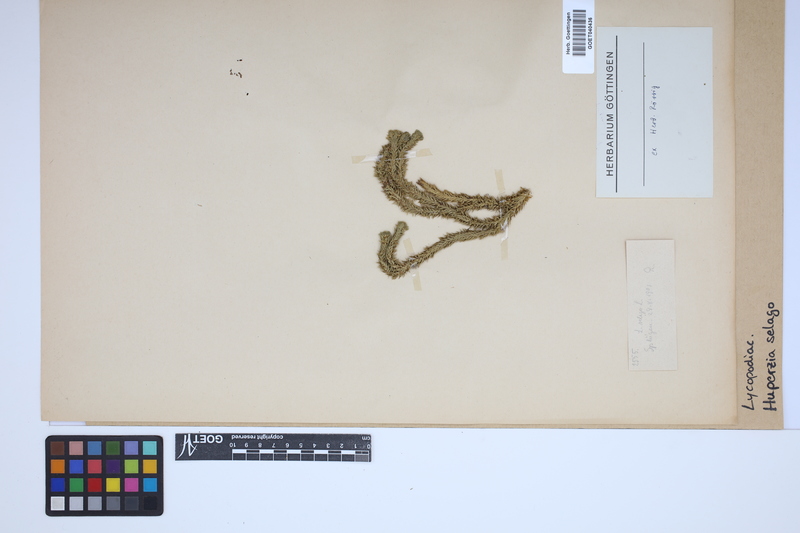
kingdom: Plantae
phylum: Tracheophyta
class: Lycopodiopsida
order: Lycopodiales
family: Lycopodiaceae
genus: Huperzia
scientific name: Huperzia selago
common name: Northern firmoss
